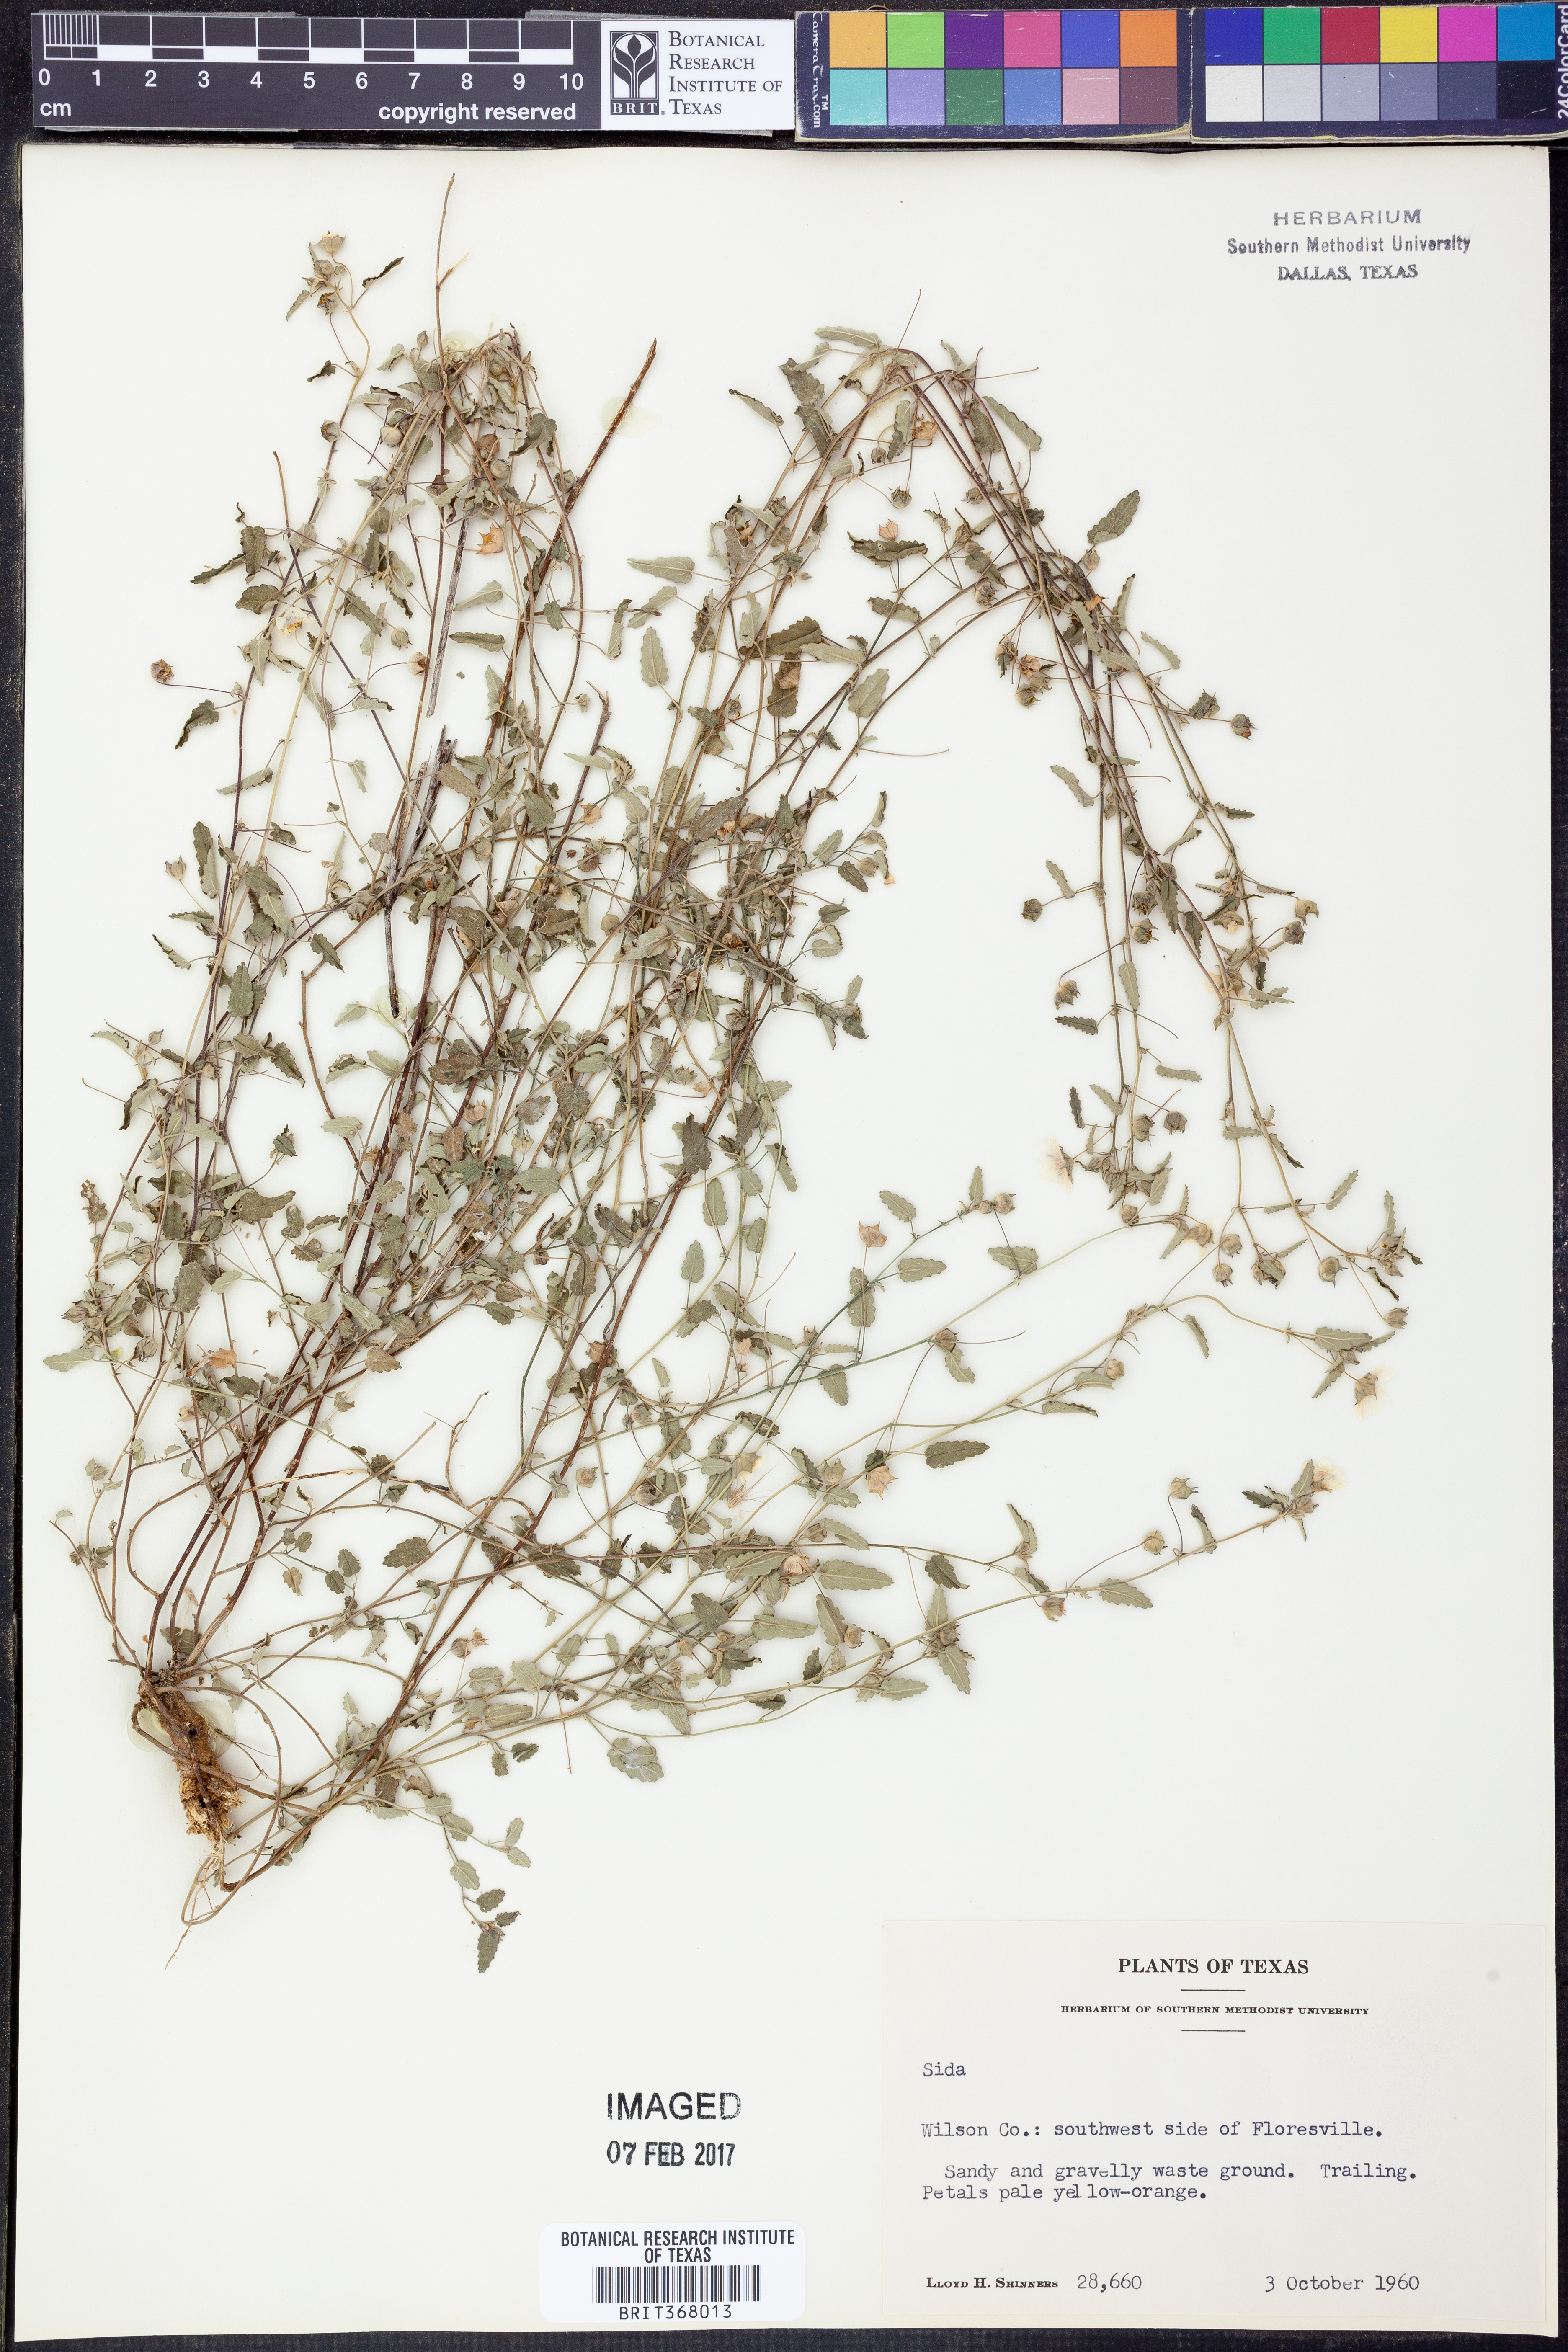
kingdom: Plantae
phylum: Tracheophyta
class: Magnoliopsida
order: Malvales
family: Malvaceae
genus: Sida
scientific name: Sida
